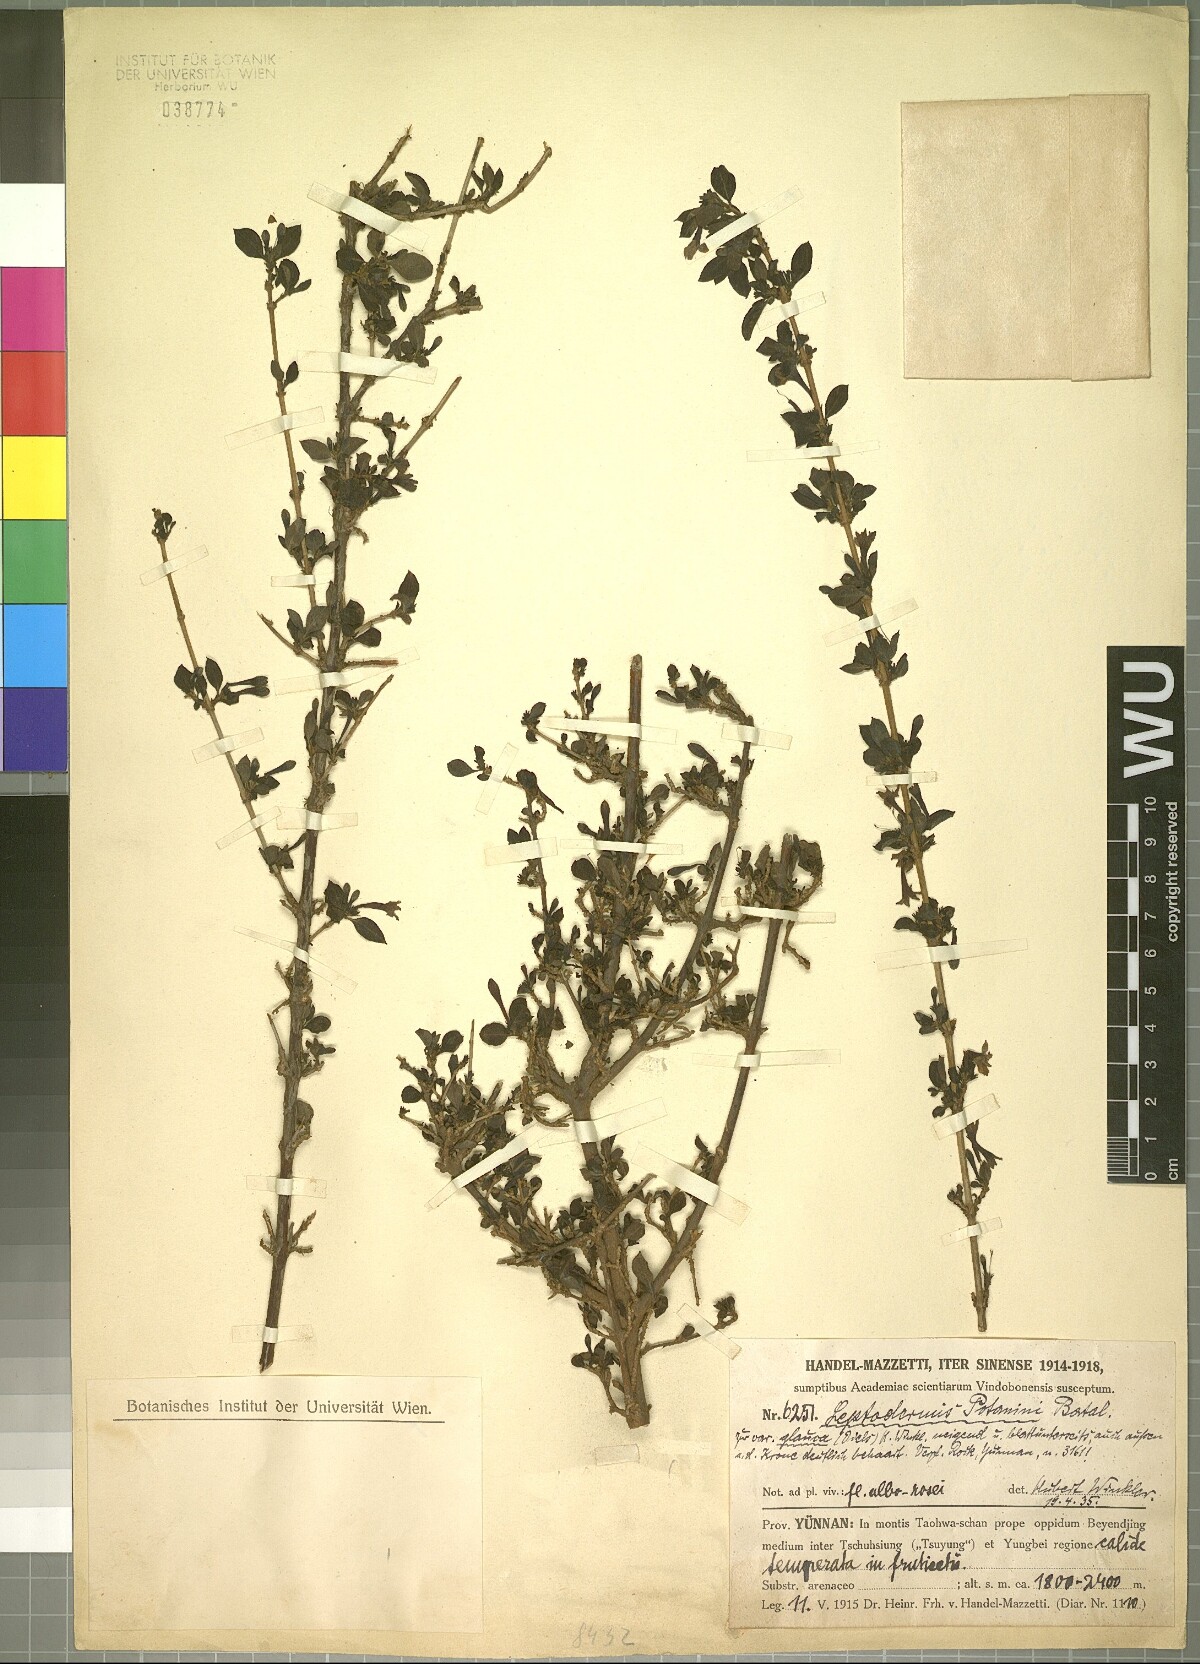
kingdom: Plantae
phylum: Tracheophyta
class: Magnoliopsida
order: Gentianales
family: Rubiaceae
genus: Leptodermis
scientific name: Leptodermis potaninii
